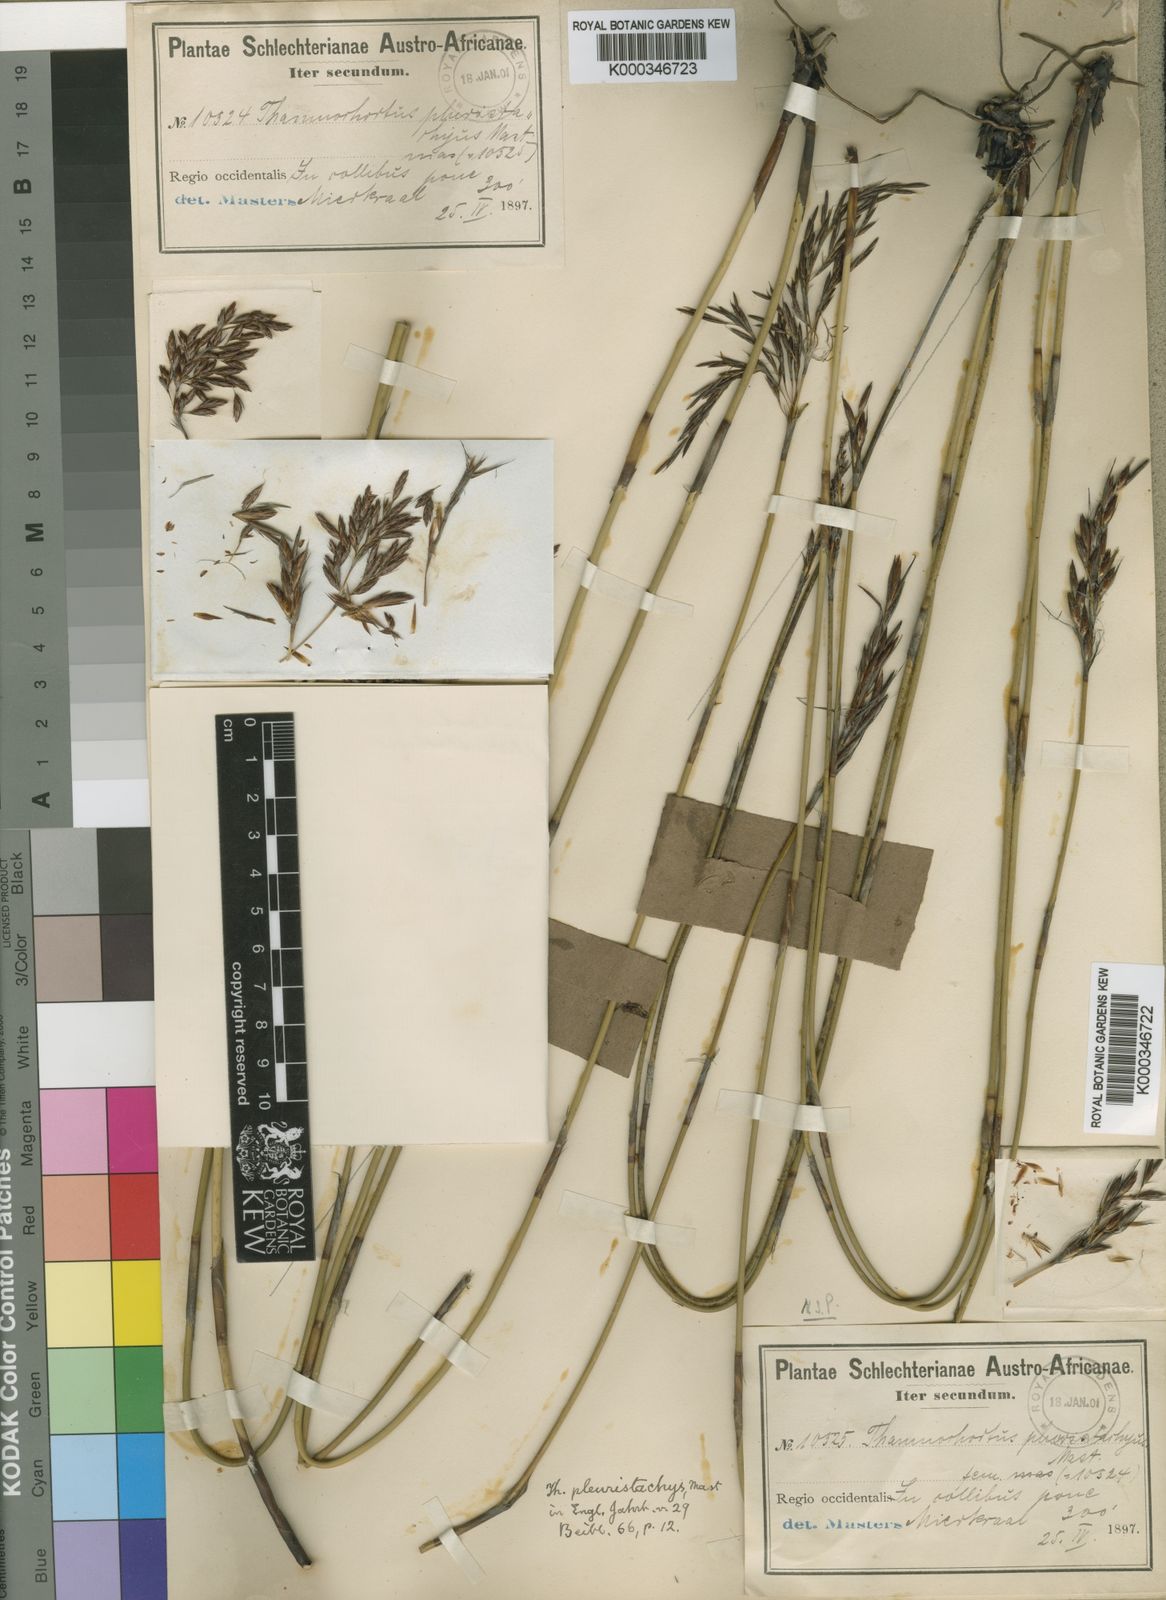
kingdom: Plantae
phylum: Tracheophyta
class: Liliopsida
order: Poales
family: Restionaceae
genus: Thamnochortus
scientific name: Thamnochortus pluristachyus
